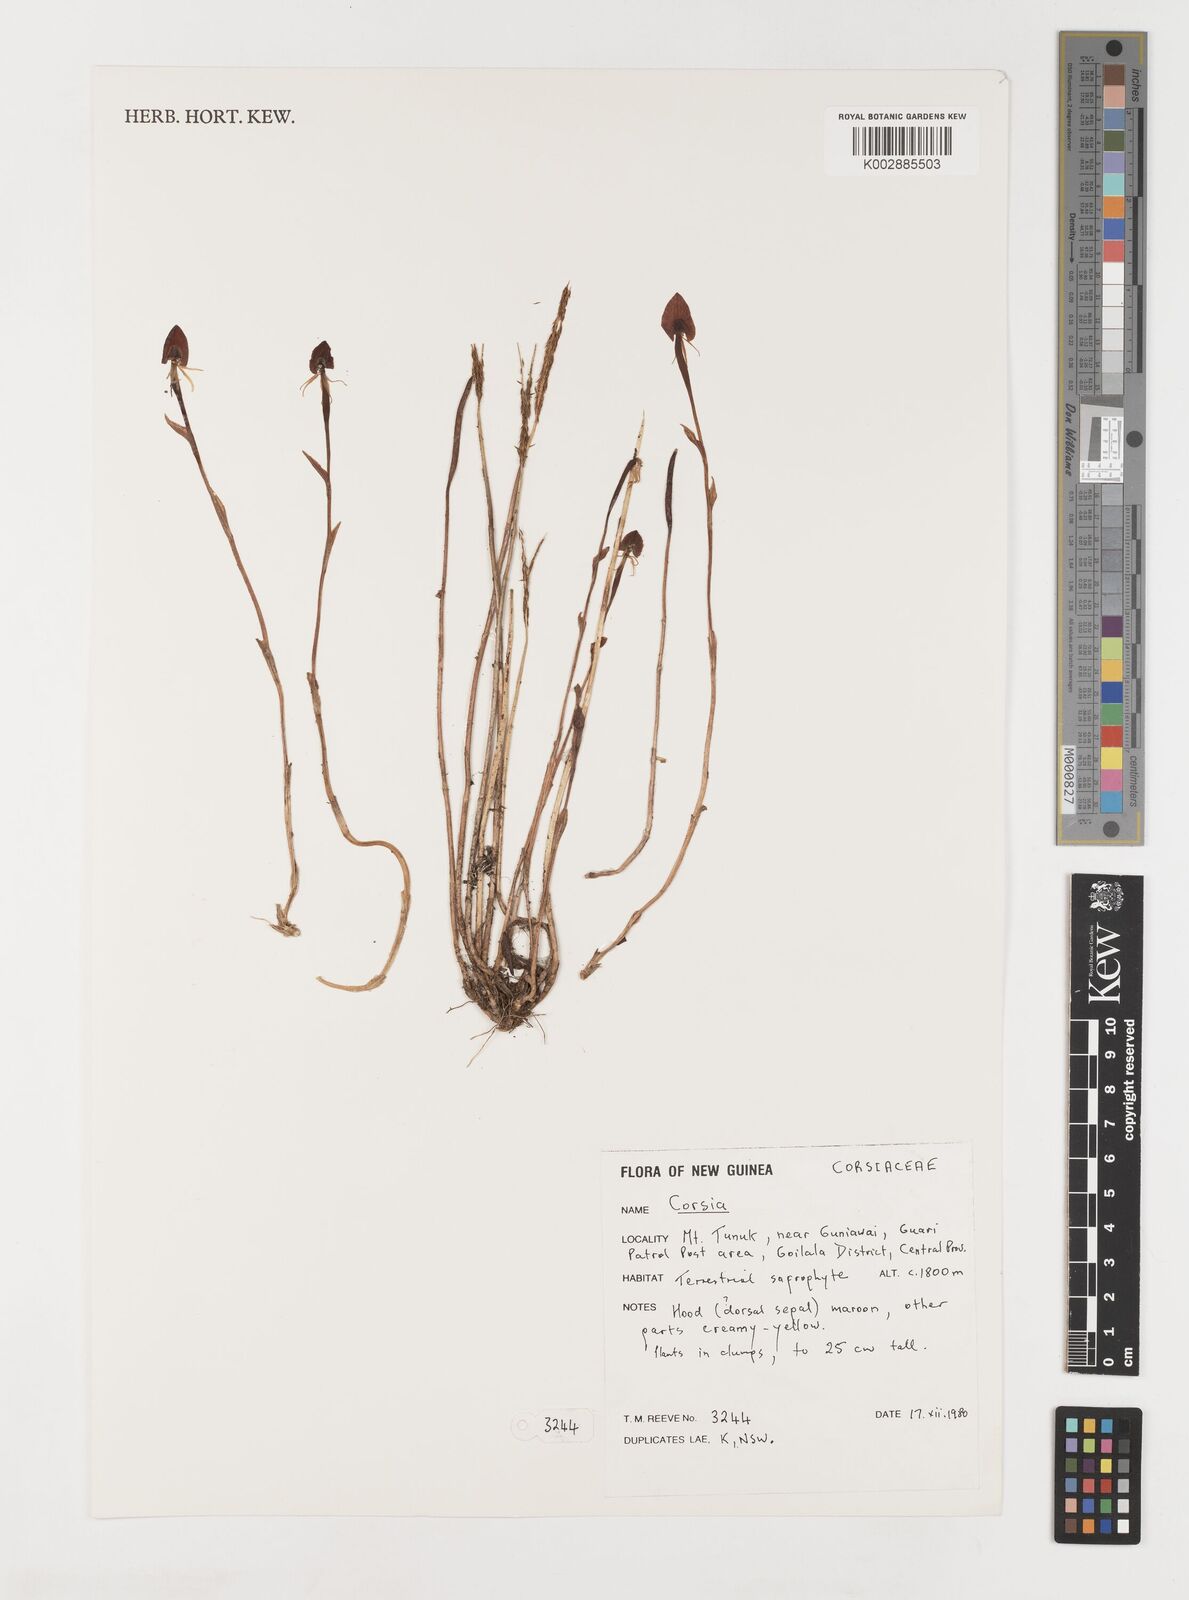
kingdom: Plantae
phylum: Tracheophyta
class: Liliopsida
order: Liliales
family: Corsiaceae
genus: Corsia
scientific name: Corsia
